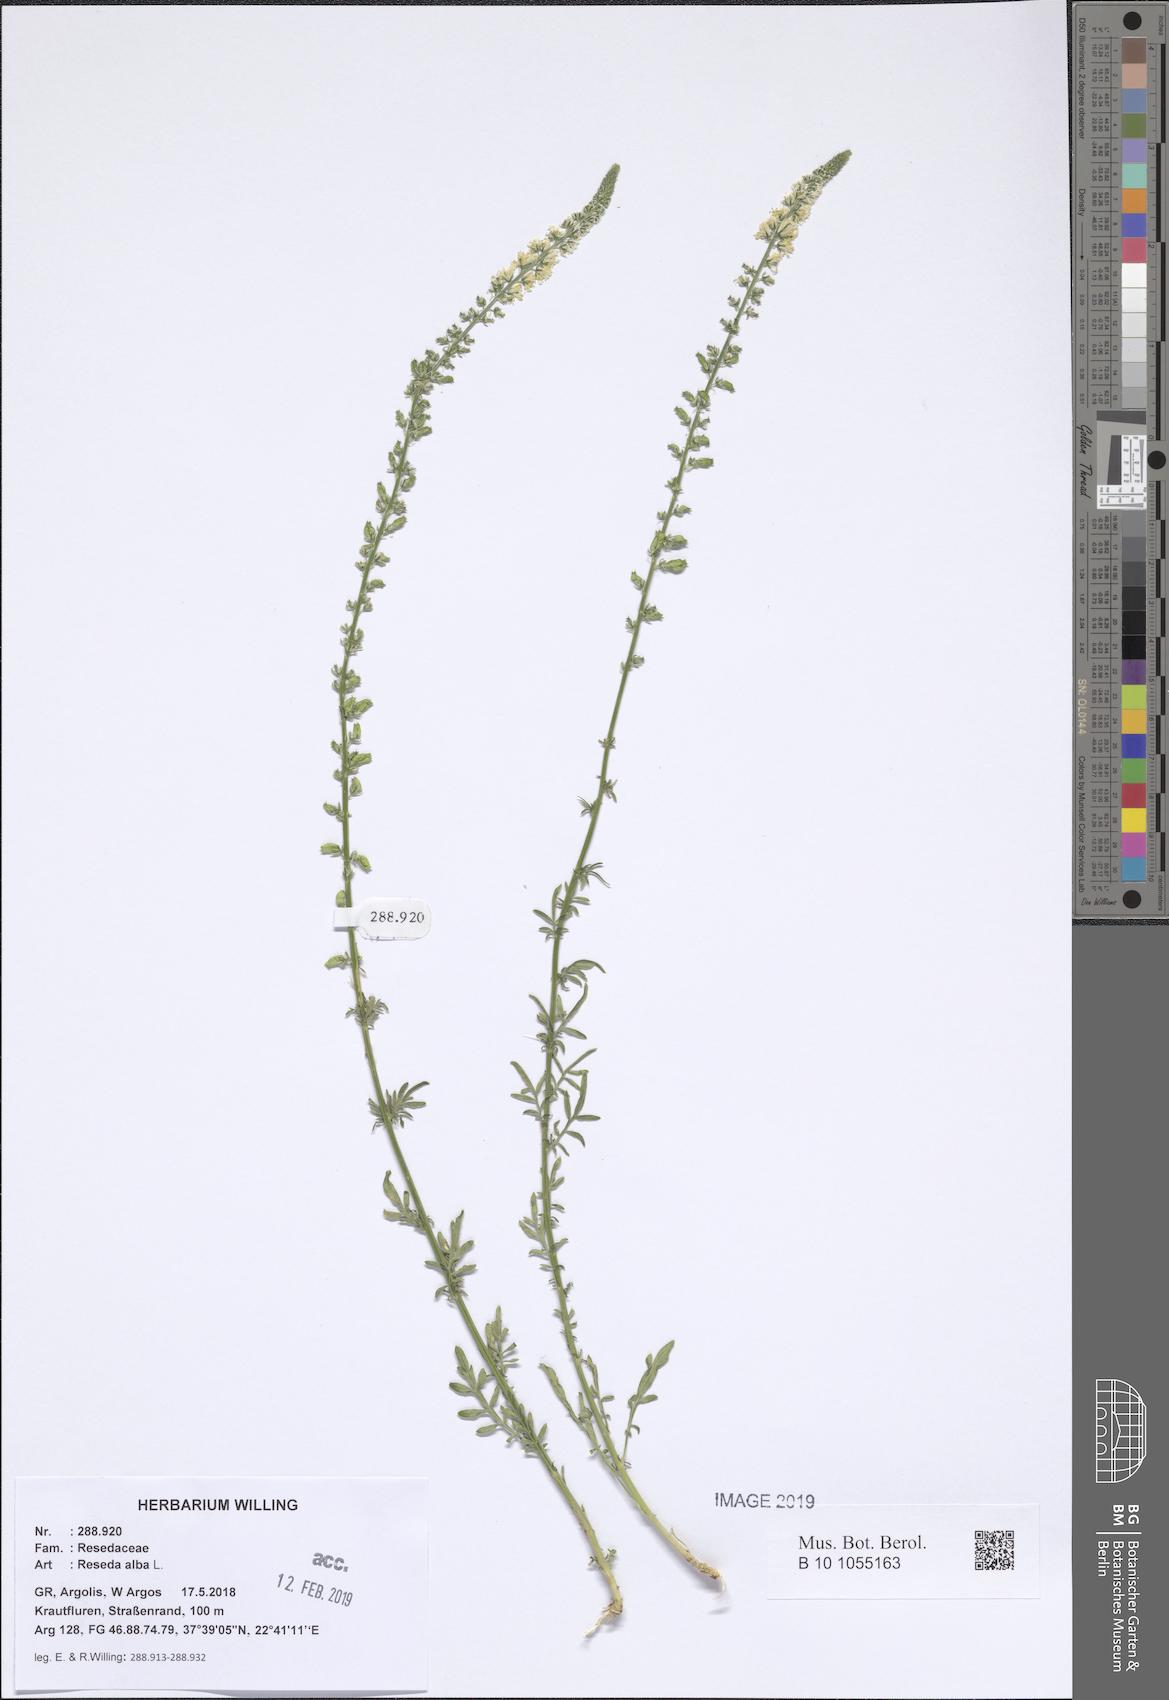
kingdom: Plantae
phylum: Tracheophyta
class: Magnoliopsida
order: Brassicales
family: Resedaceae
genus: Reseda
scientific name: Reseda alba
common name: White mignonette
